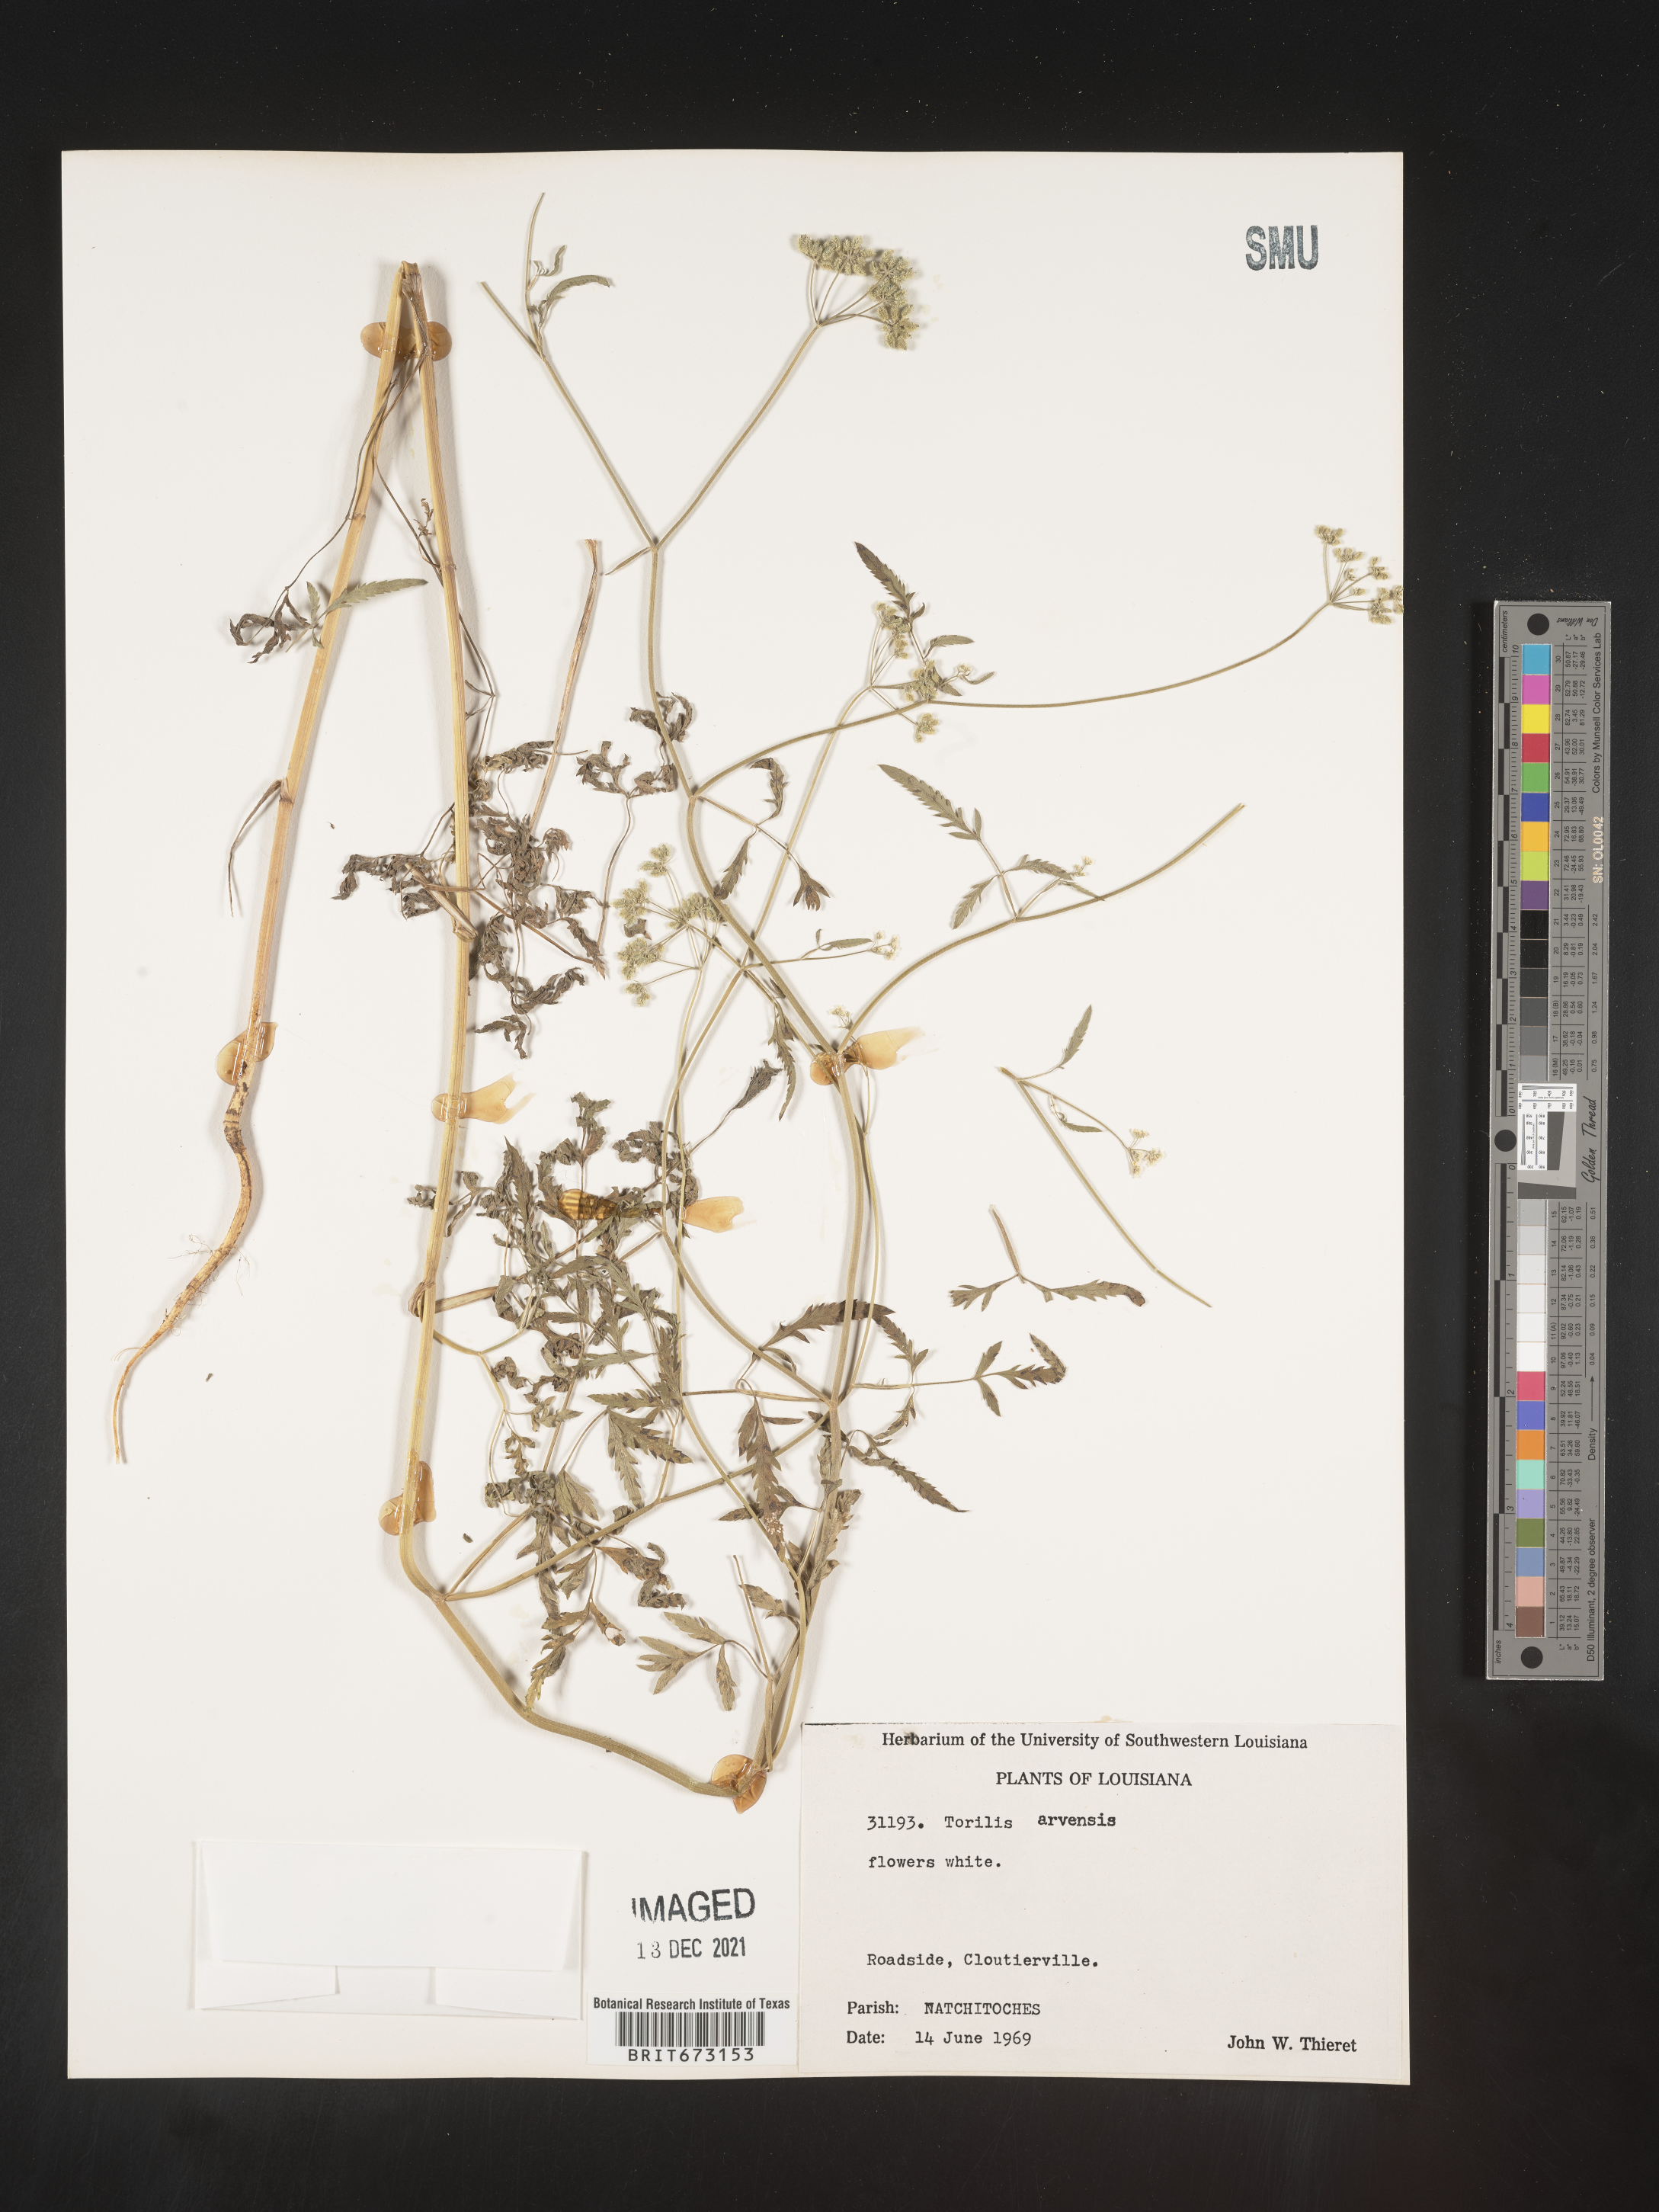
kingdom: Plantae
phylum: Tracheophyta
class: Magnoliopsida
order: Apiales
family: Apiaceae
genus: Torilis
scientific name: Torilis arvensis
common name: Spreading hedge-parsley
